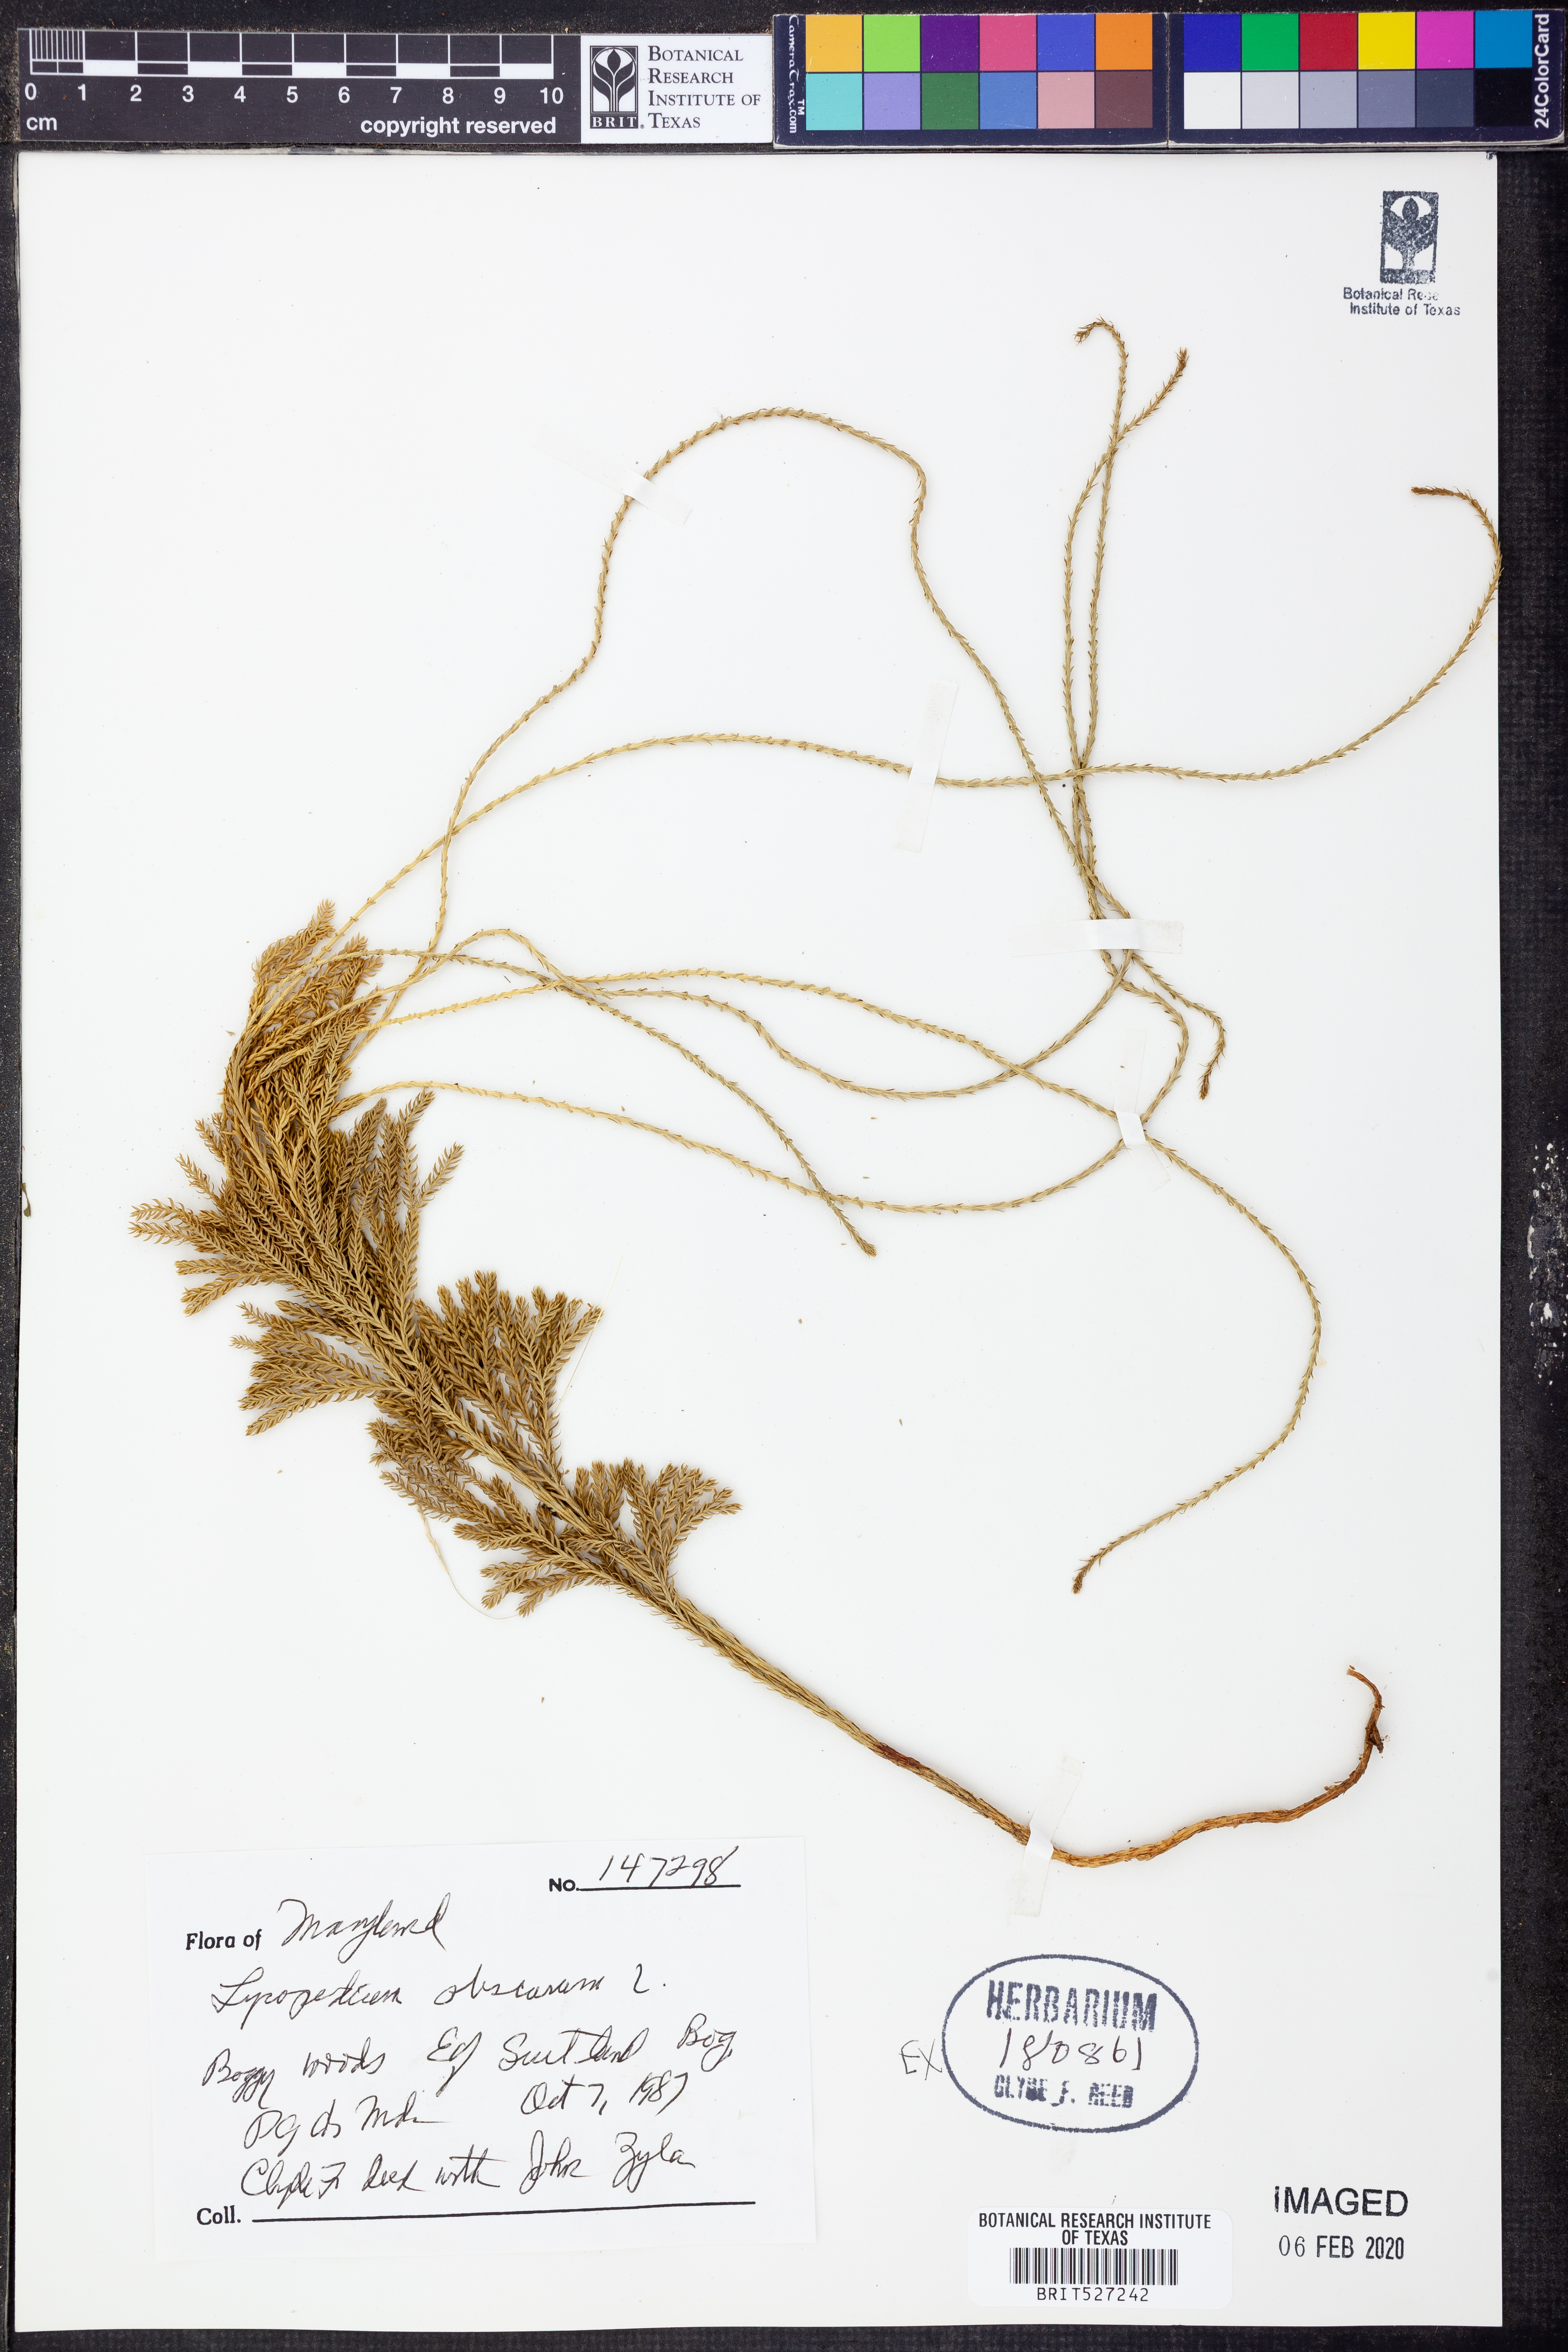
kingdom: Plantae
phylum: Tracheophyta
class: Lycopodiopsida
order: Lycopodiales
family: Lycopodiaceae
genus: Dendrolycopodium
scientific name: Dendrolycopodium obscurum
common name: Common ground-pine
